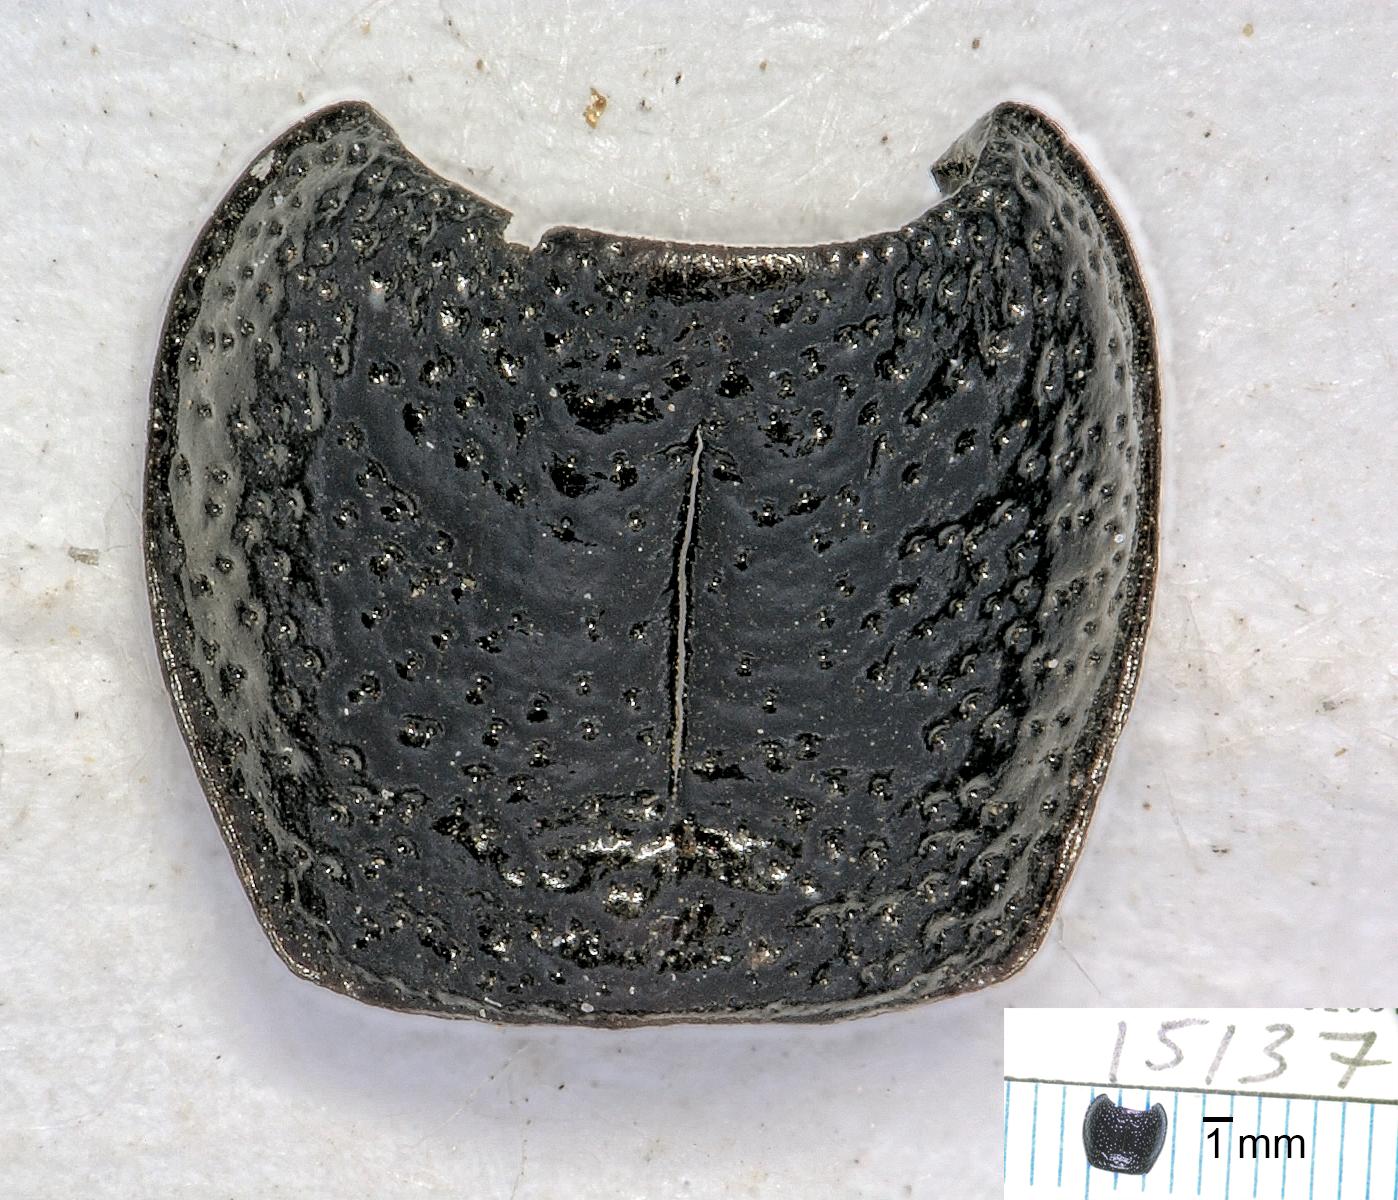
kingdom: Animalia
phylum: Arthropoda
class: Insecta
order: Coleoptera
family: Carabidae
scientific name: Carabidae
